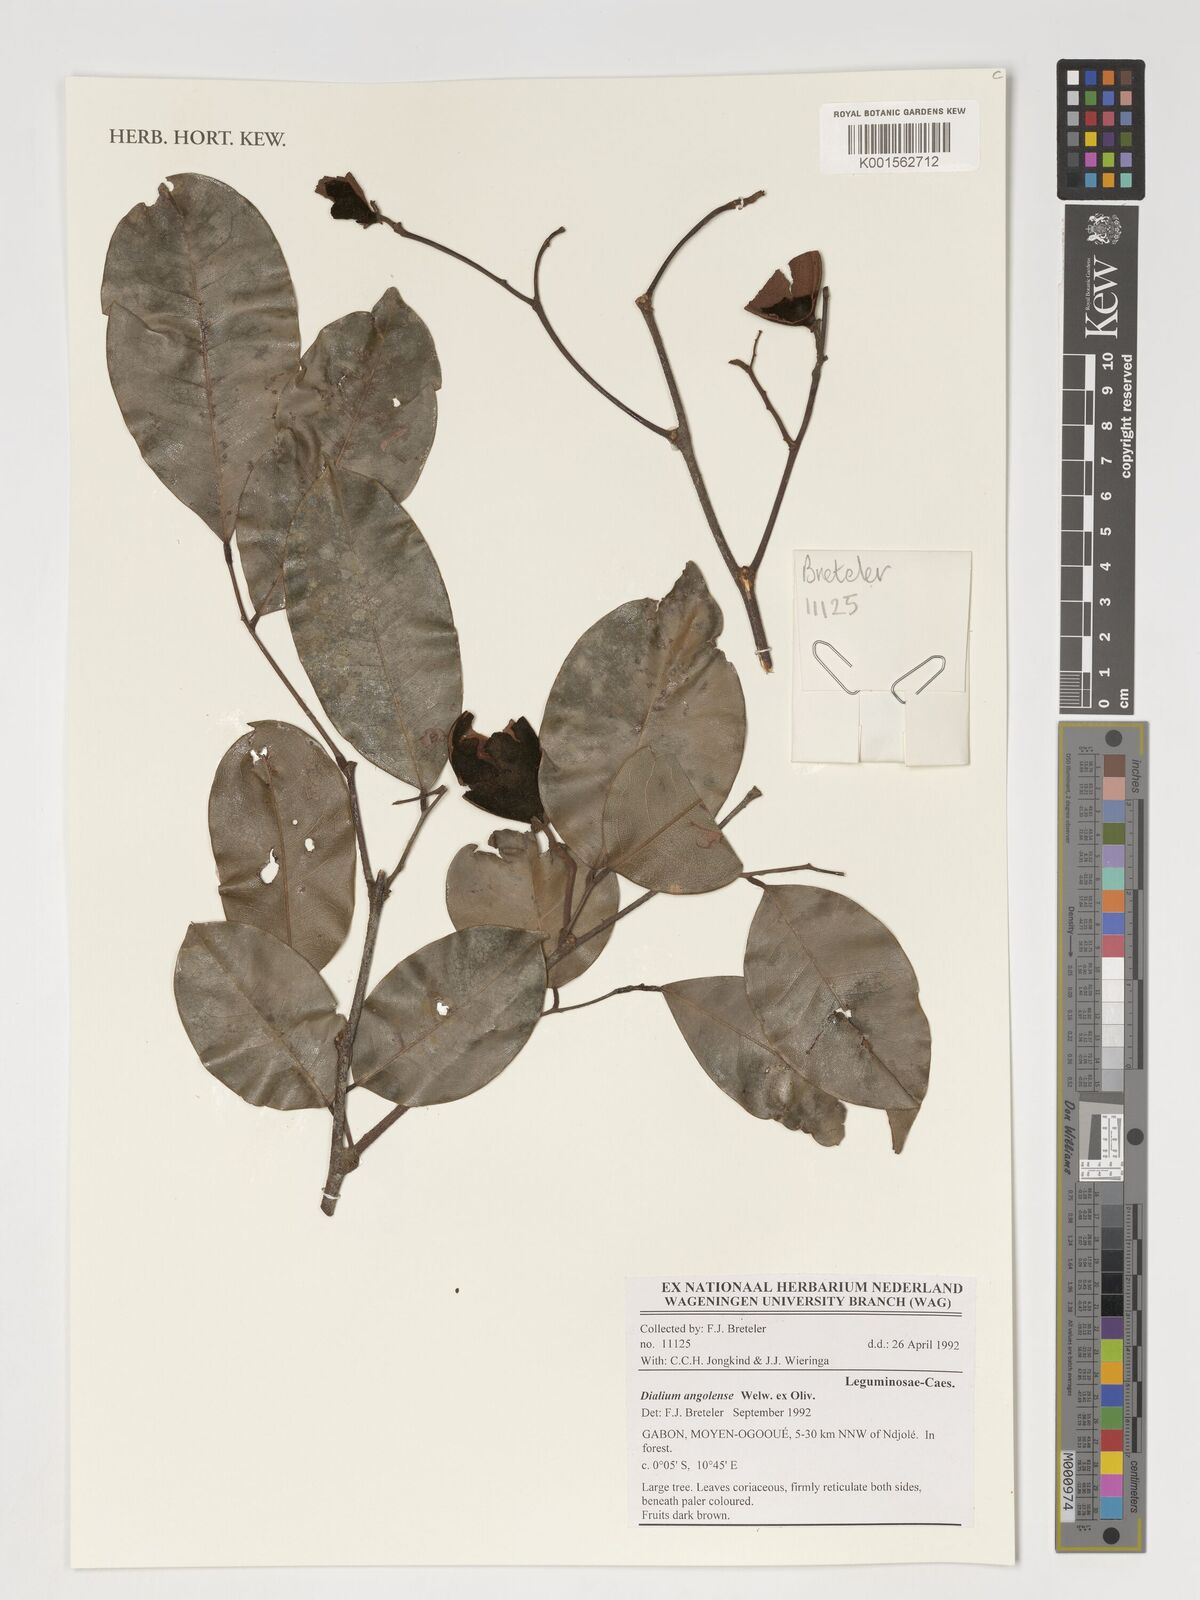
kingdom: Plantae
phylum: Tracheophyta
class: Magnoliopsida
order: Fabales
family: Fabaceae
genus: Dialium
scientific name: Dialium angolense
